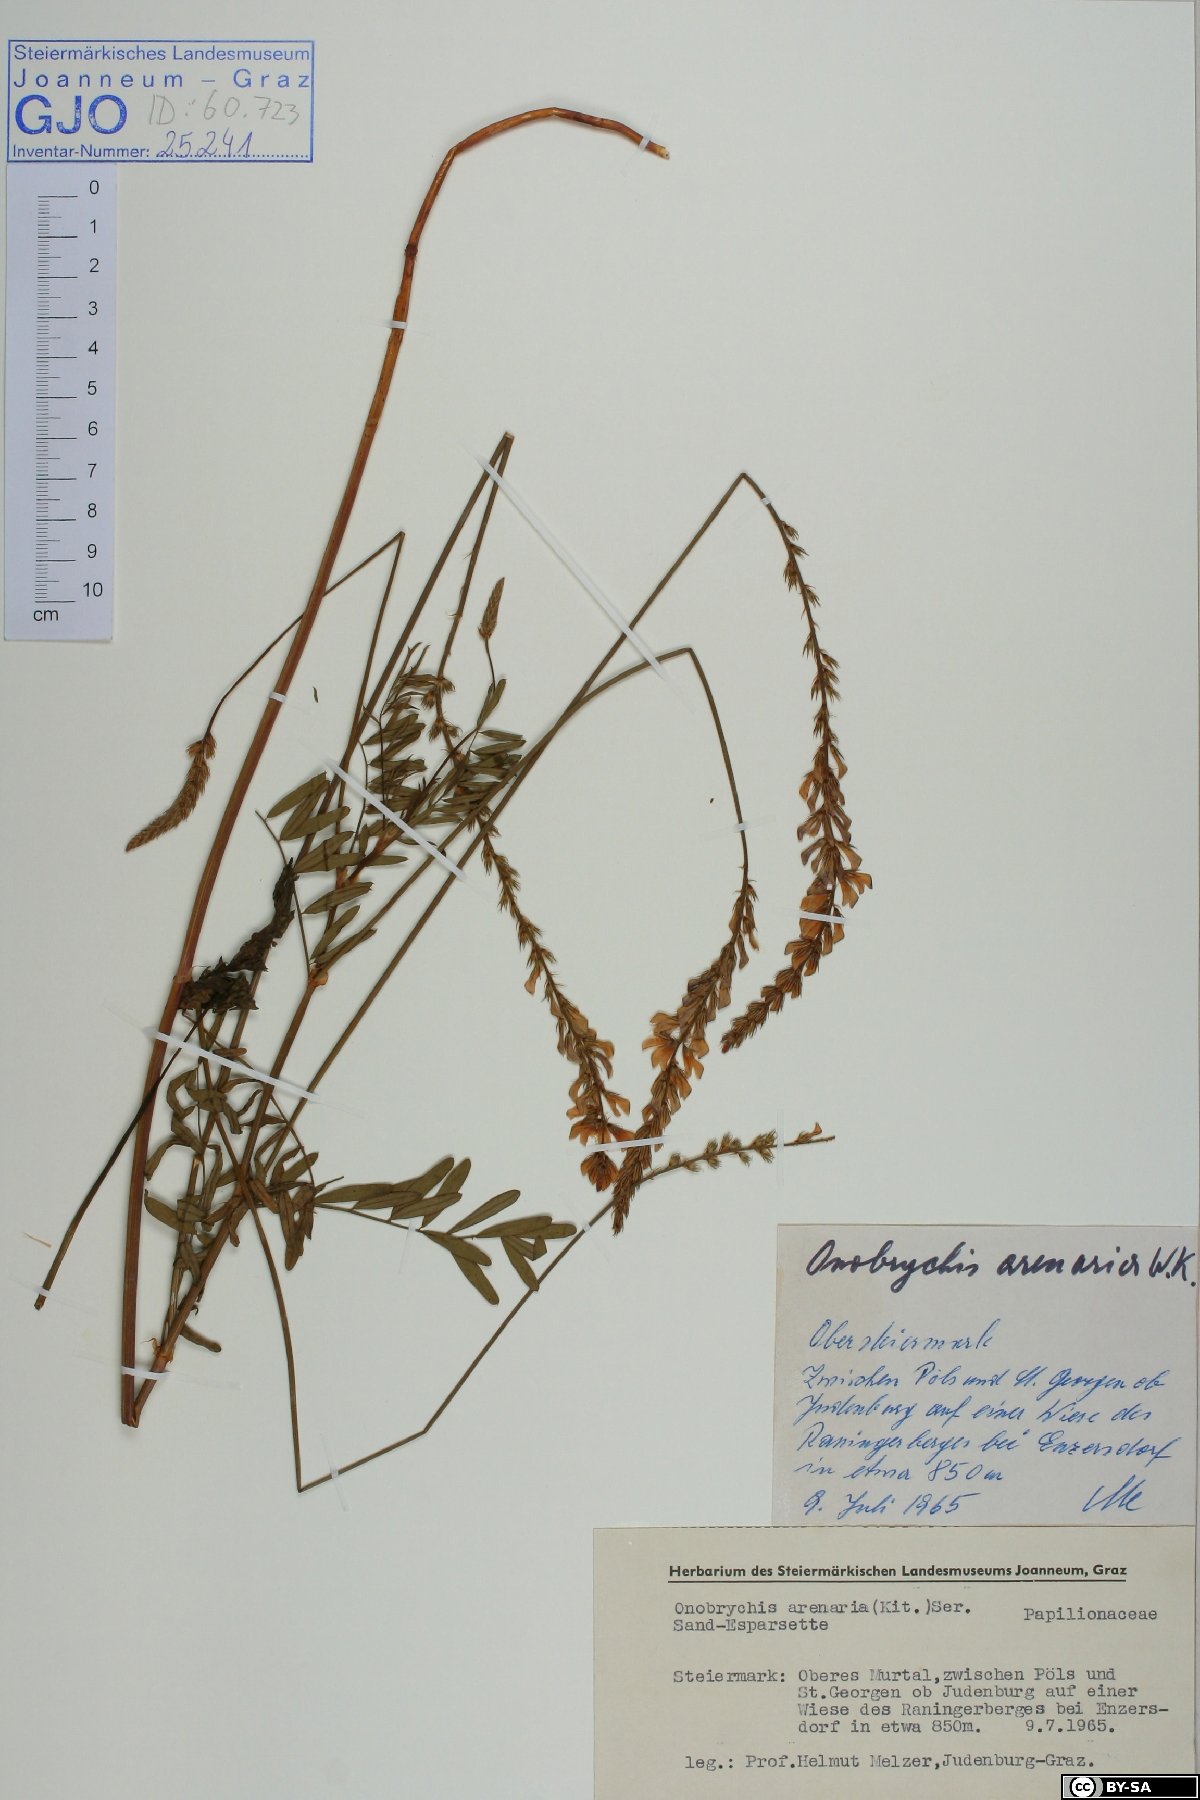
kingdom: Plantae
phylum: Tracheophyta
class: Magnoliopsida
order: Fabales
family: Fabaceae
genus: Onobrychis
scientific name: Onobrychis arenaria
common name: Sand esparcet
